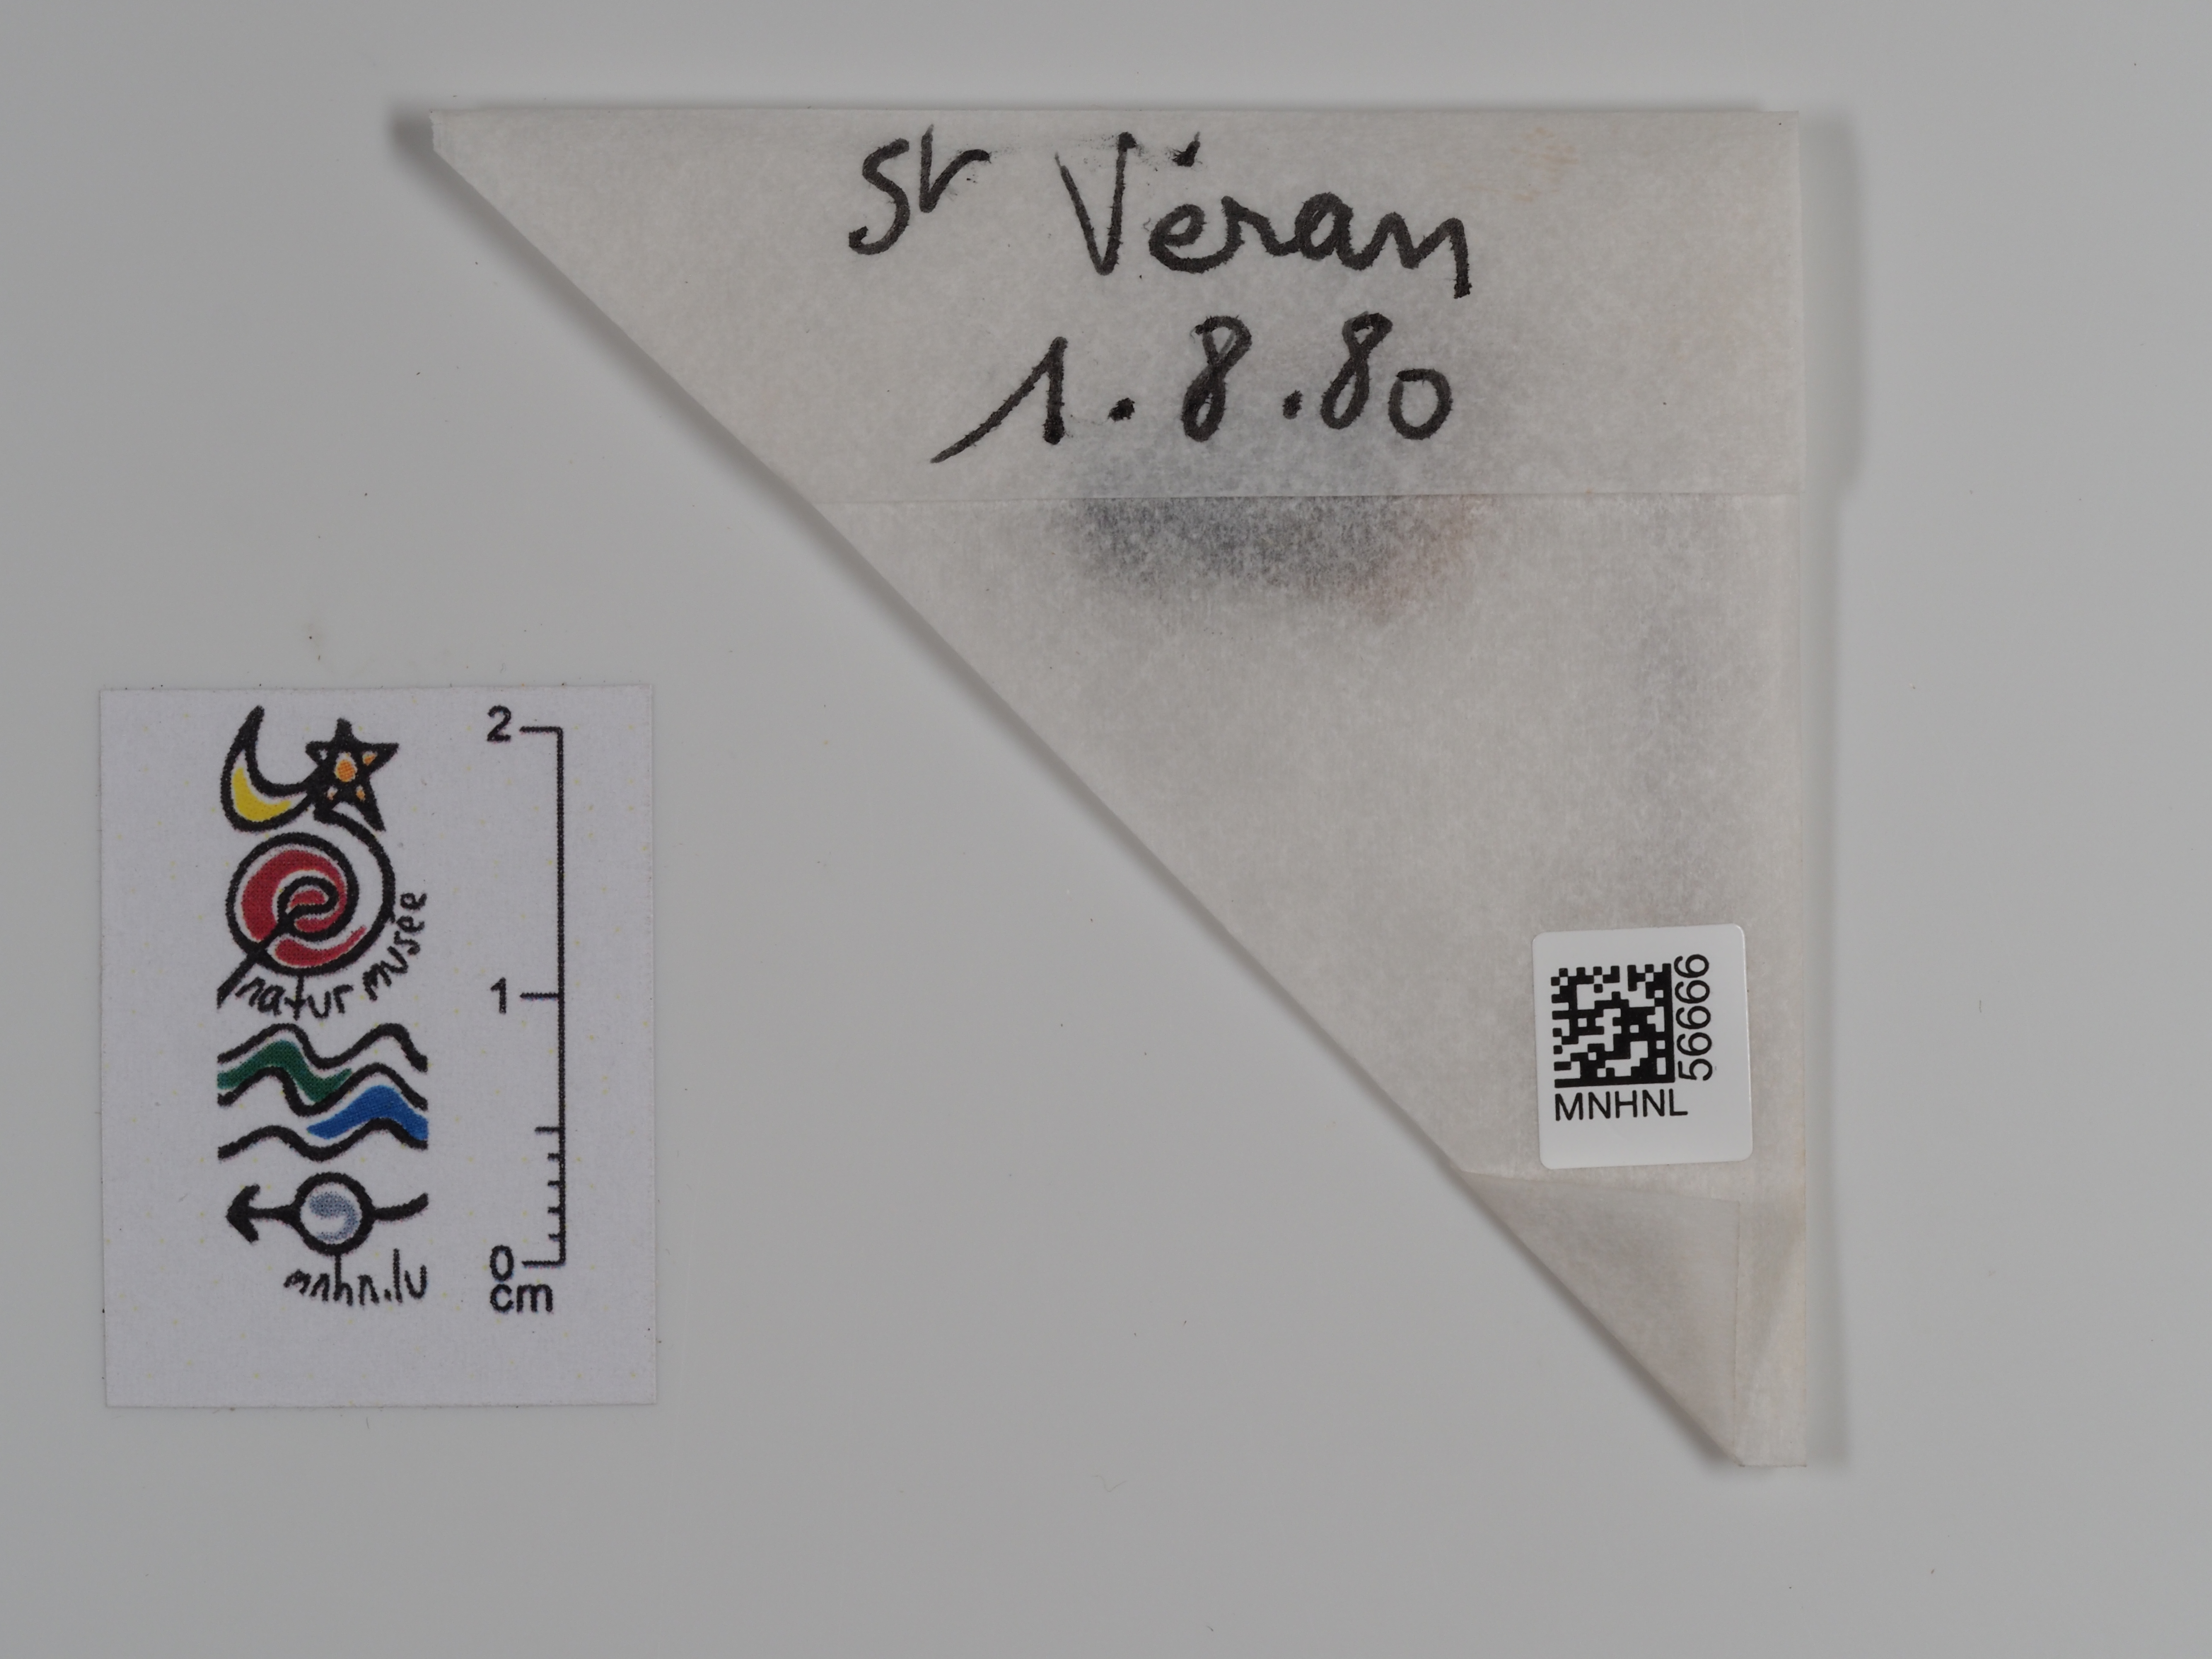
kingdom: Animalia
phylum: Arthropoda
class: Insecta
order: Lepidoptera
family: Nymphalidae
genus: Coenonympha
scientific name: Coenonympha arcania
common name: Pearly heath
